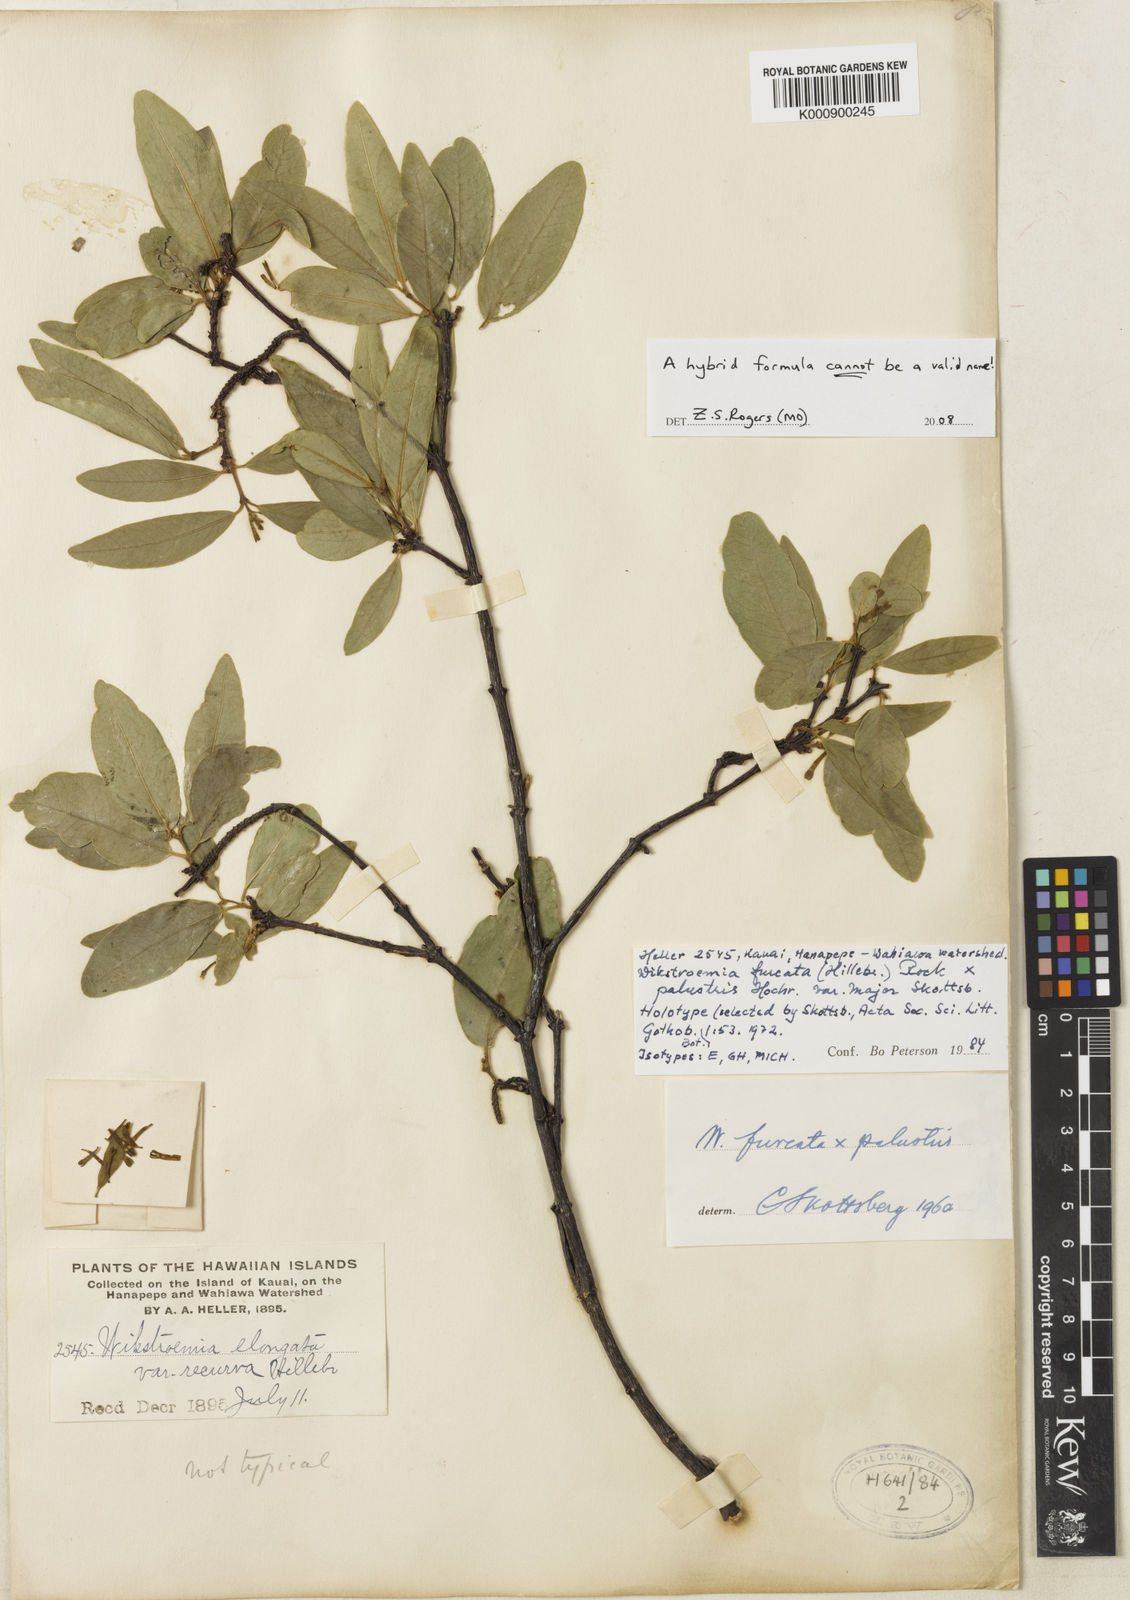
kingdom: Plantae
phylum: Tracheophyta
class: Magnoliopsida
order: Malvales
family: Thymelaeaceae
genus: Wikstroemia
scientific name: Wikstroemia furcata
